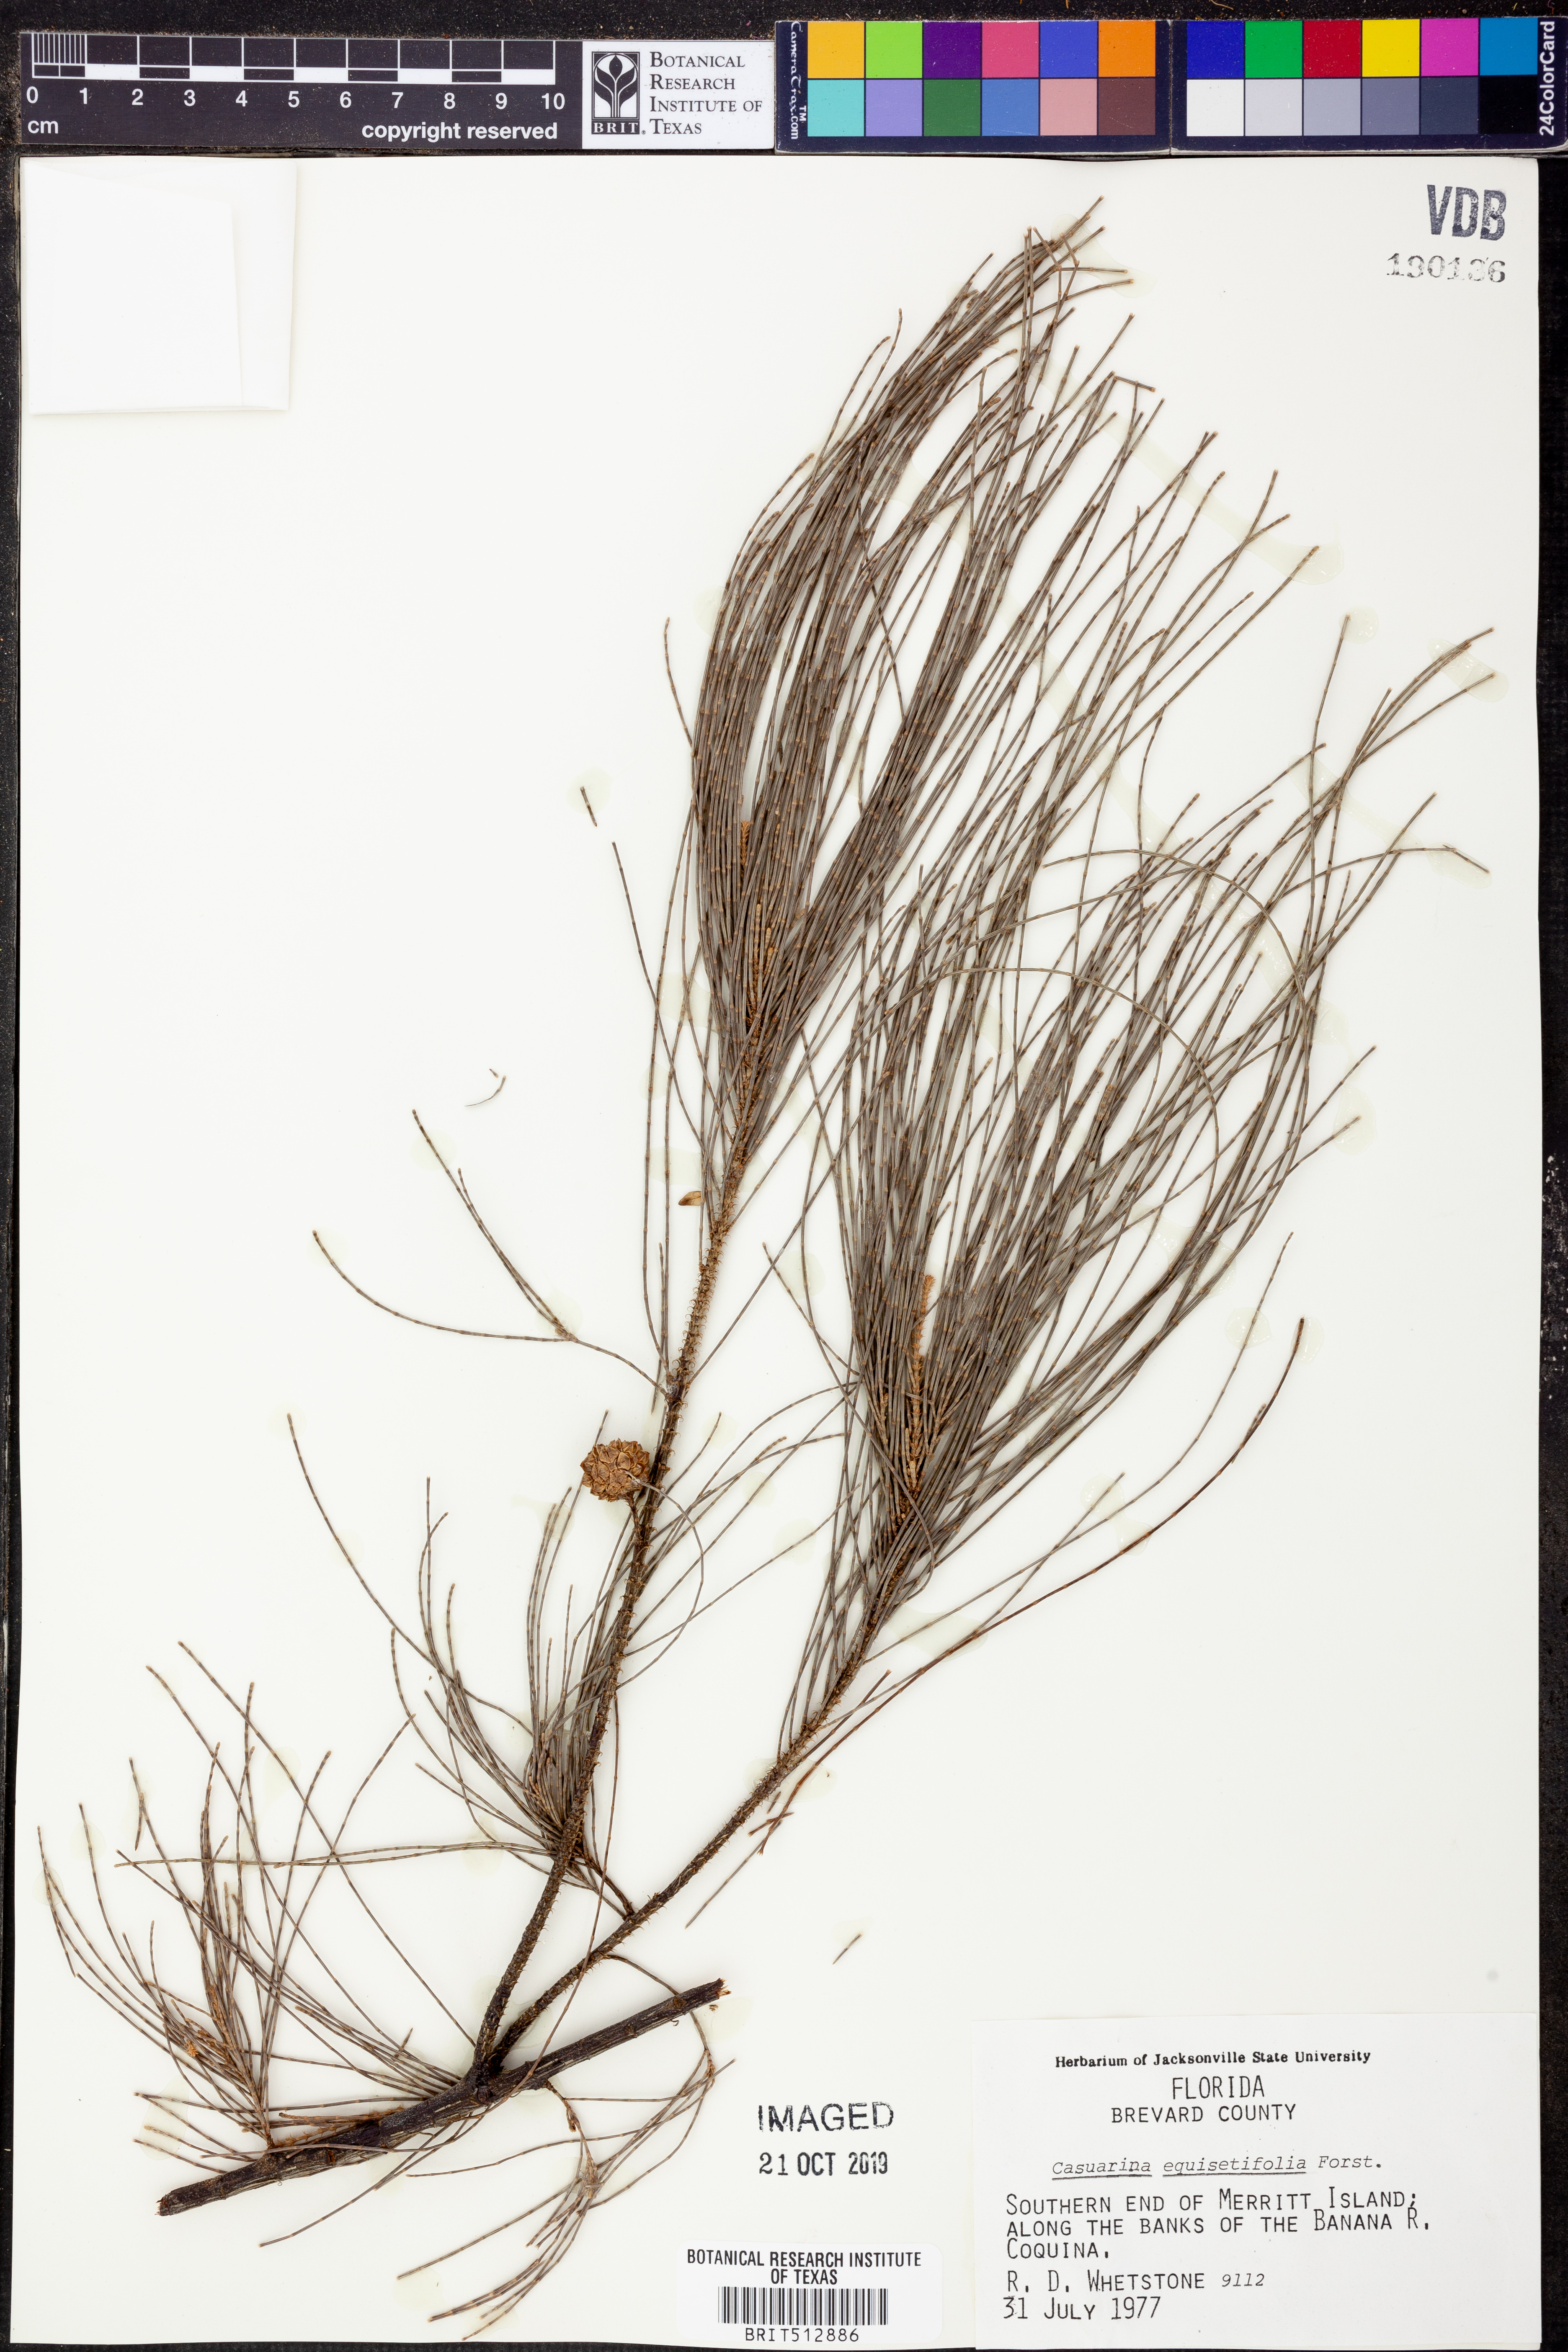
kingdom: Plantae
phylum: Tracheophyta
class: Magnoliopsida
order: Fagales
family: Casuarinaceae
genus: Casuarina
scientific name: Casuarina equisetifolia
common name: Beach sheoak
